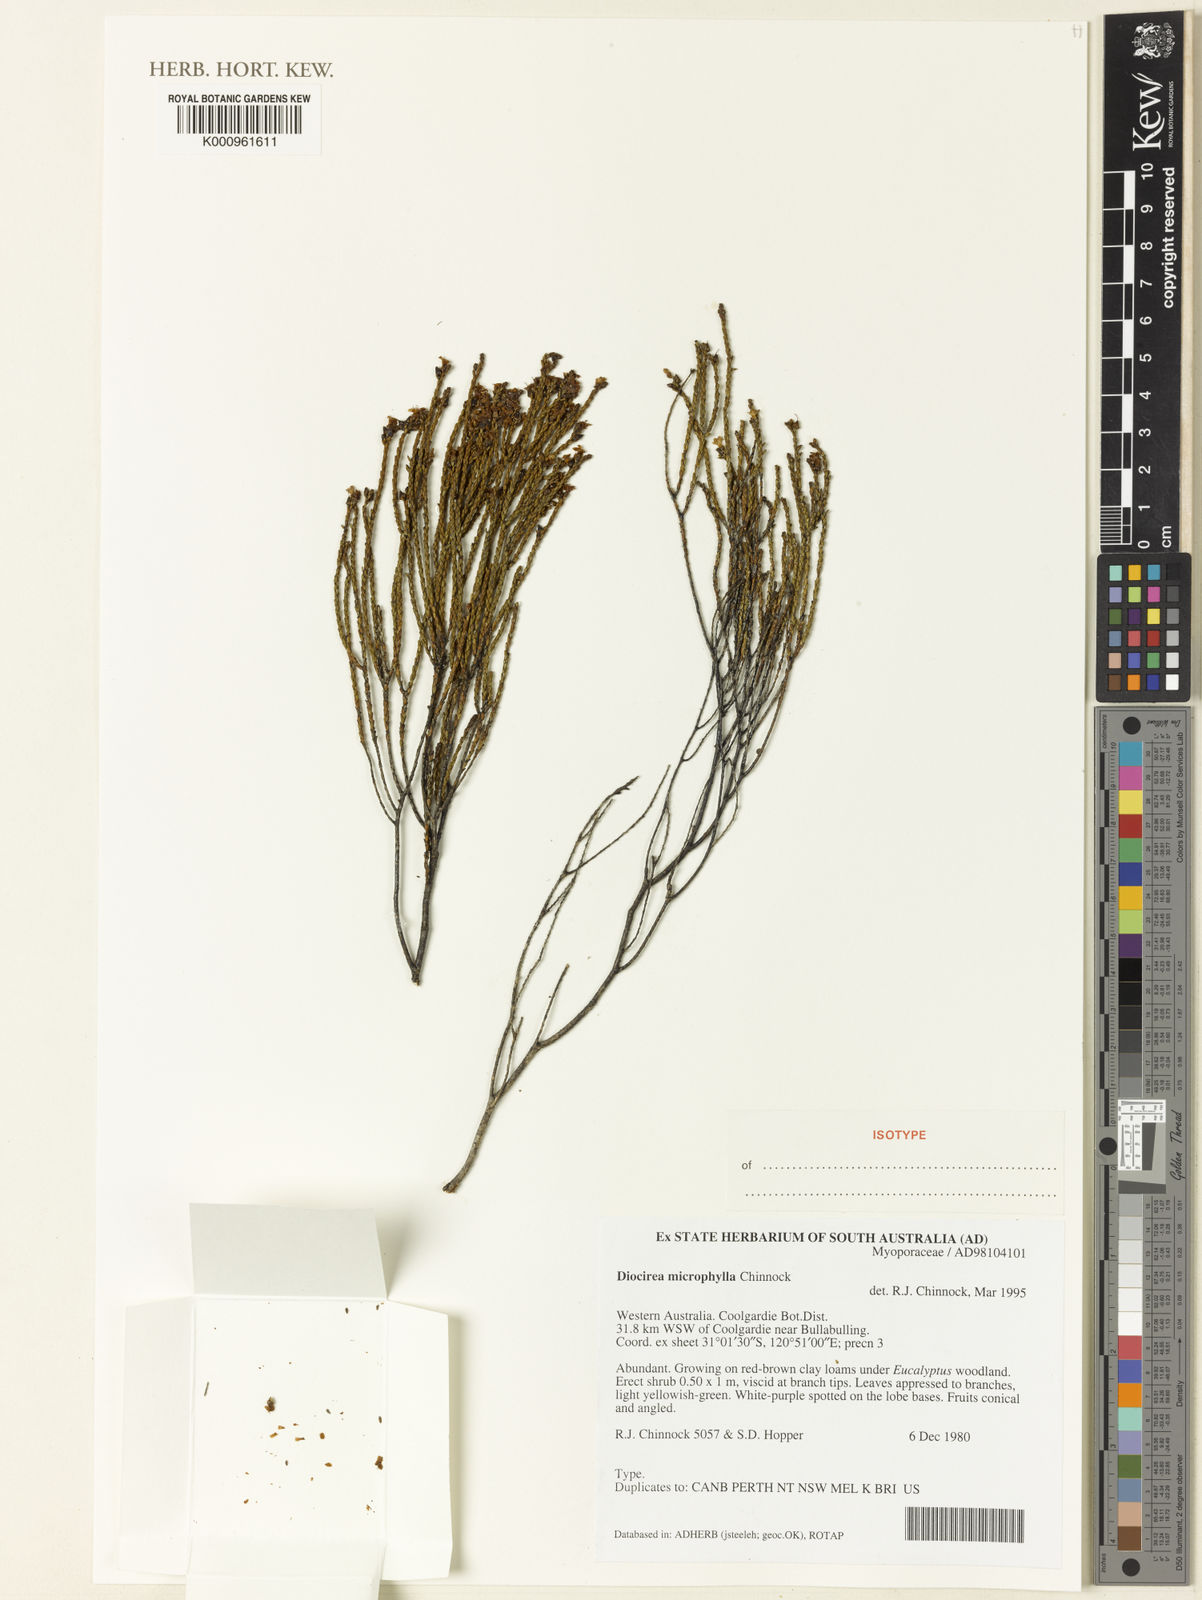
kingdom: Plantae
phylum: Tracheophyta
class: Magnoliopsida
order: Lamiales
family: Scrophulariaceae
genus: Eremophila
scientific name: Eremophila microphylla
